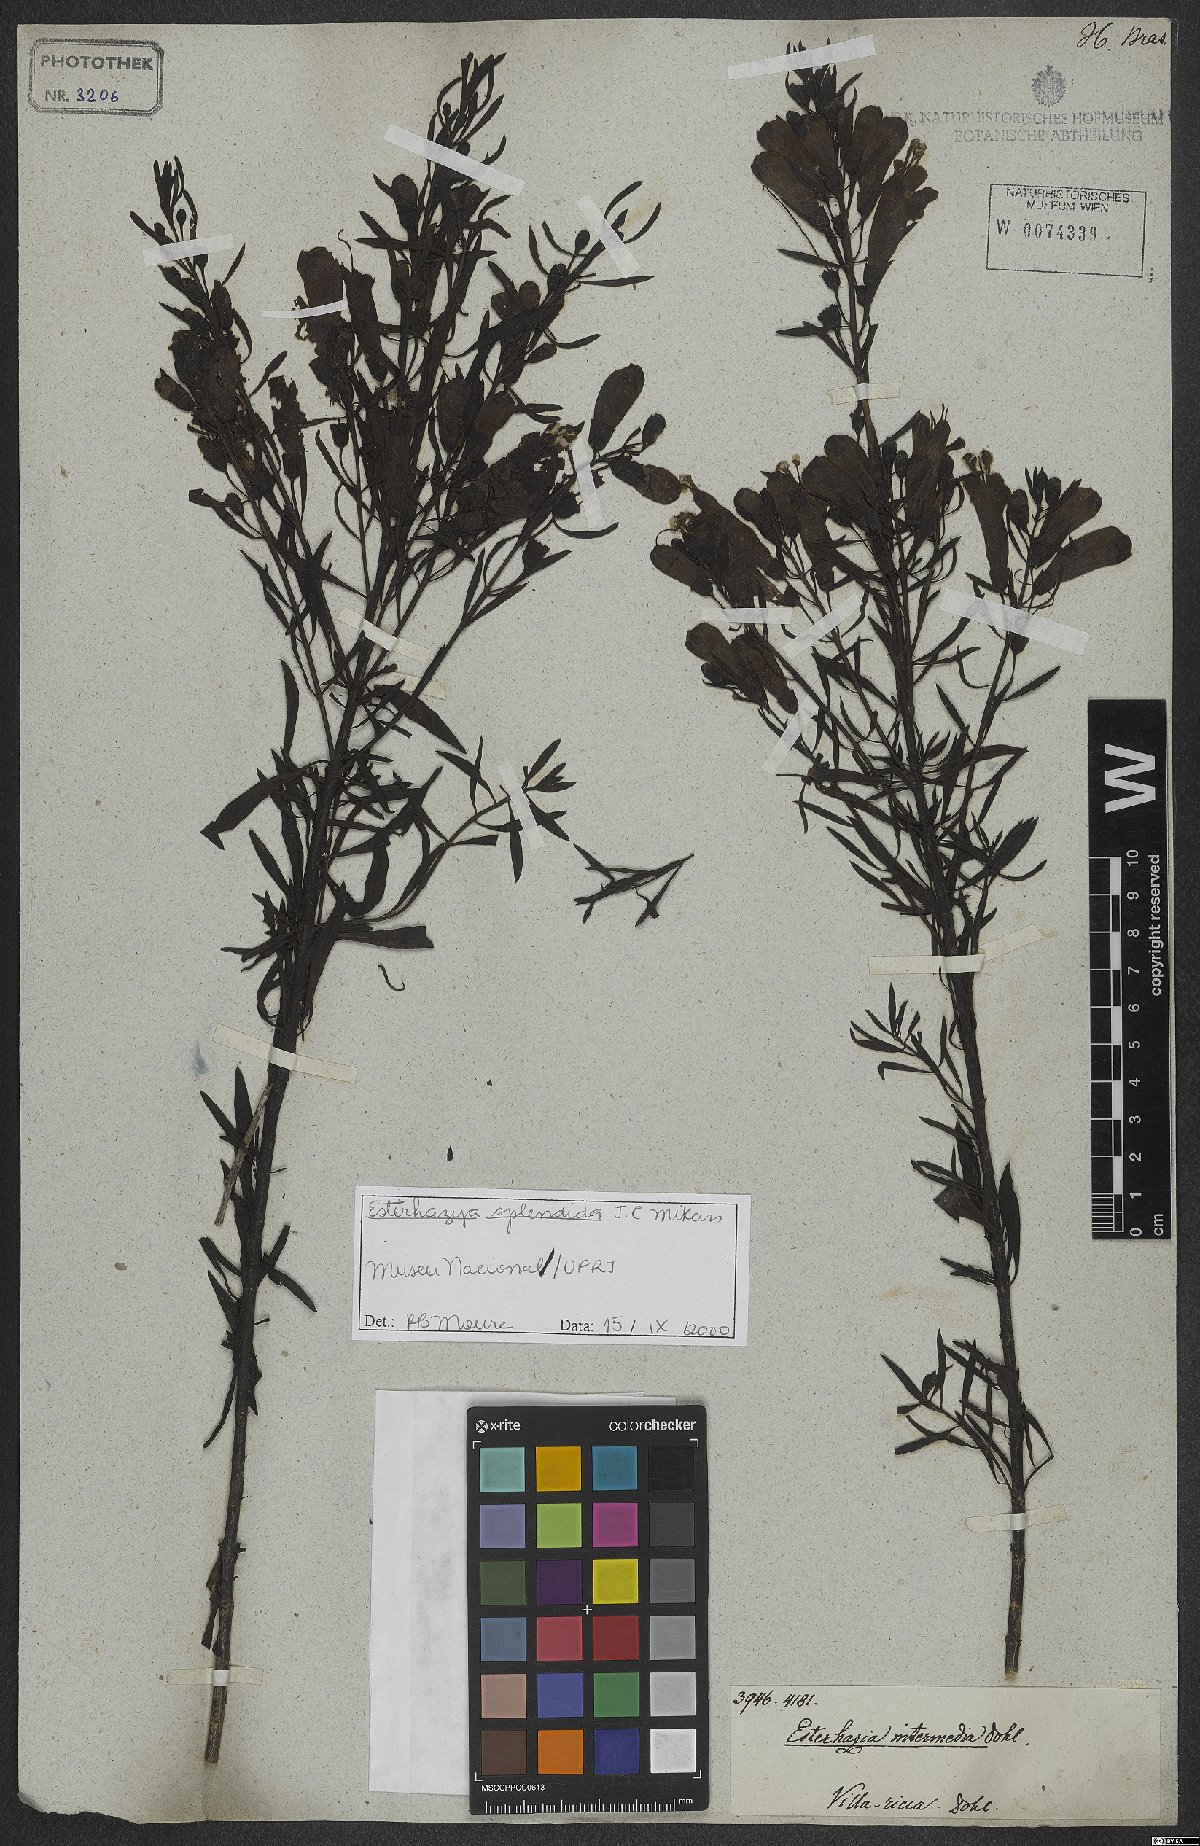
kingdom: Plantae
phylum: Tracheophyta
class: Magnoliopsida
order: Lamiales
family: Orobanchaceae
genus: Esterhazya
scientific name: Esterhazya splendida
